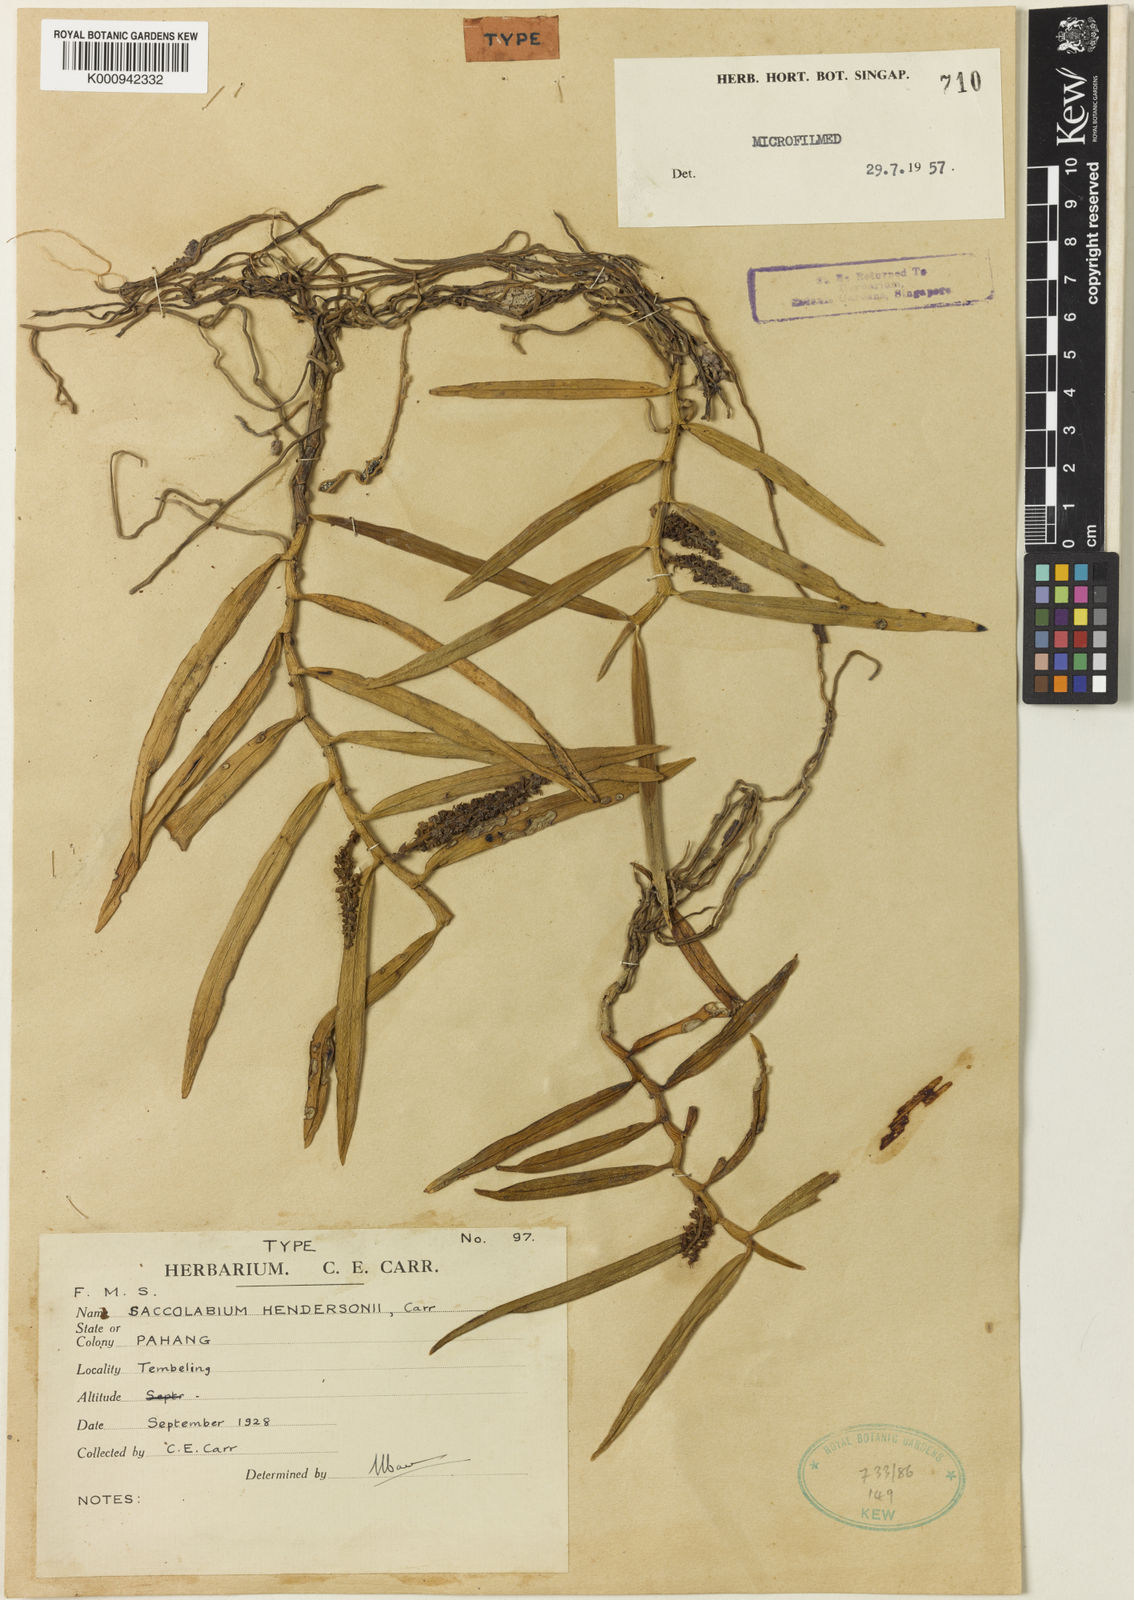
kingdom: Plantae
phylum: Tracheophyta
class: Liliopsida
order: Asparagales
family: Orchidaceae
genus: Robiquetia
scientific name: Robiquetia penangiana
